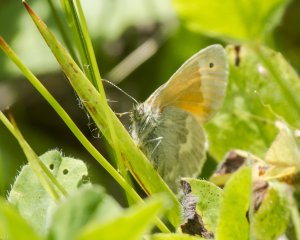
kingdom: Animalia
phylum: Arthropoda
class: Insecta
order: Lepidoptera
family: Nymphalidae
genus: Coenonympha
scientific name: Coenonympha tullia
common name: Large Heath
